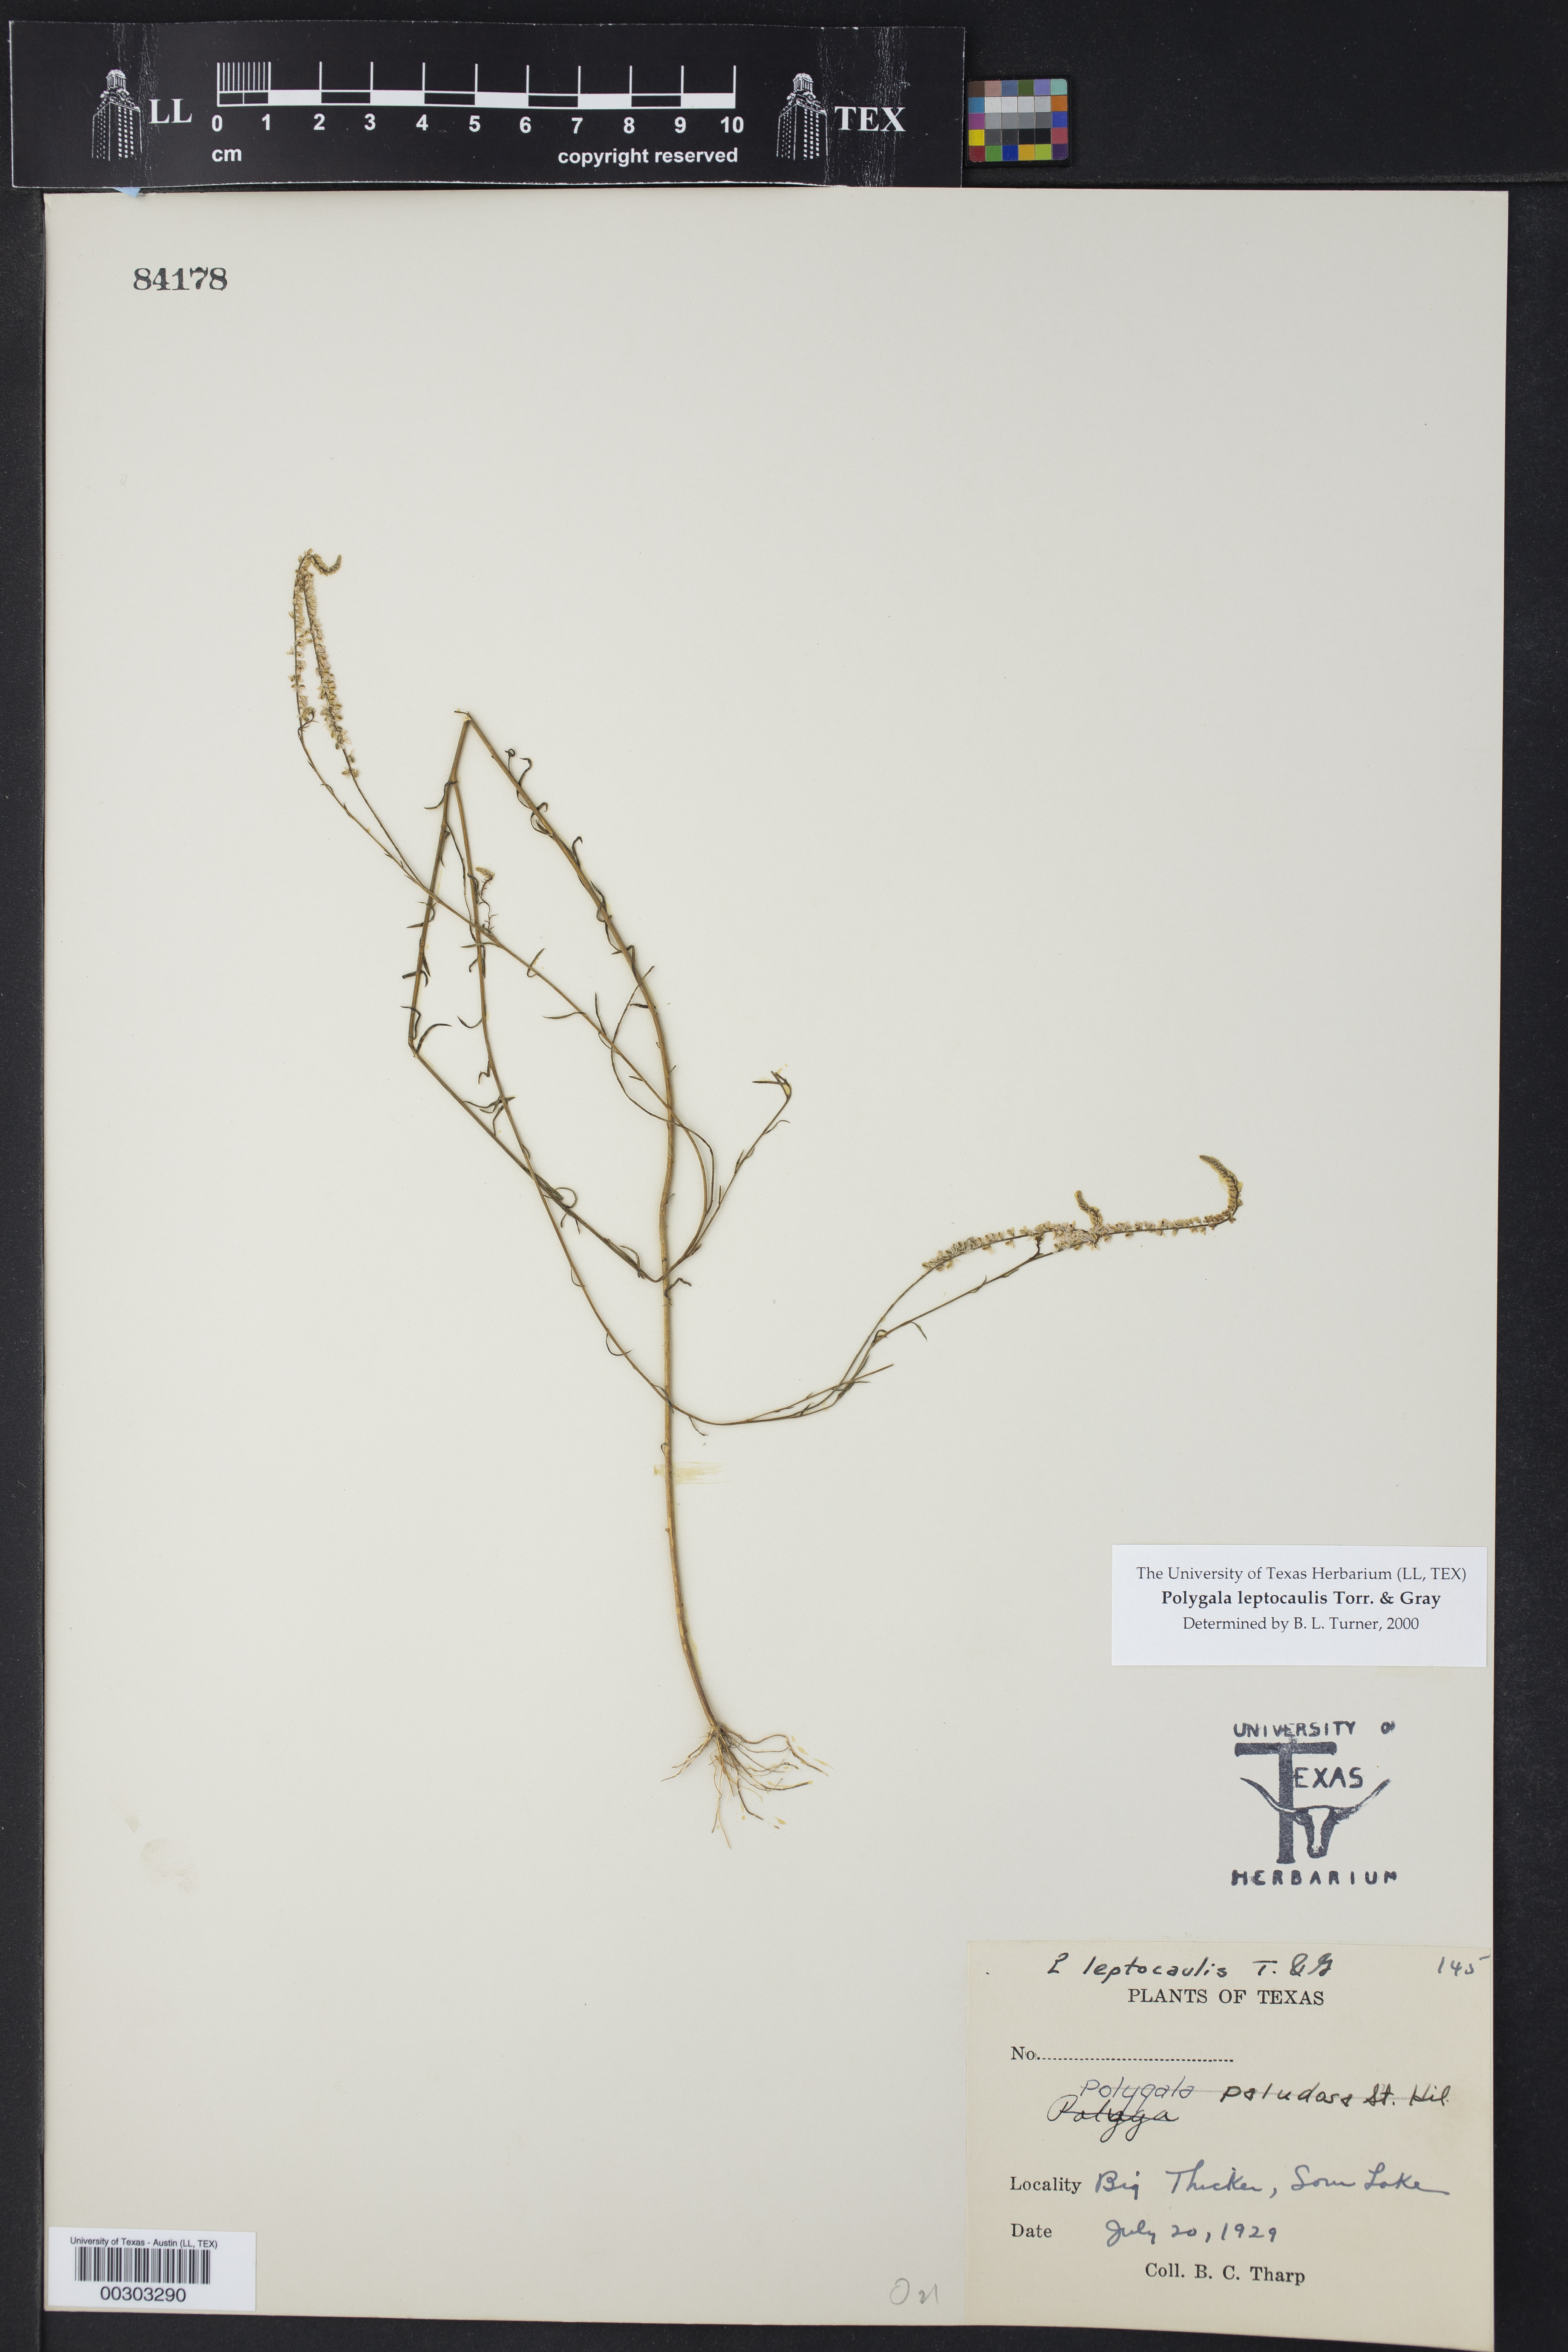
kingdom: Plantae
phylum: Tracheophyta
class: Magnoliopsida
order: Fabales
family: Polygalaceae
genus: Polygala
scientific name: Polygala
